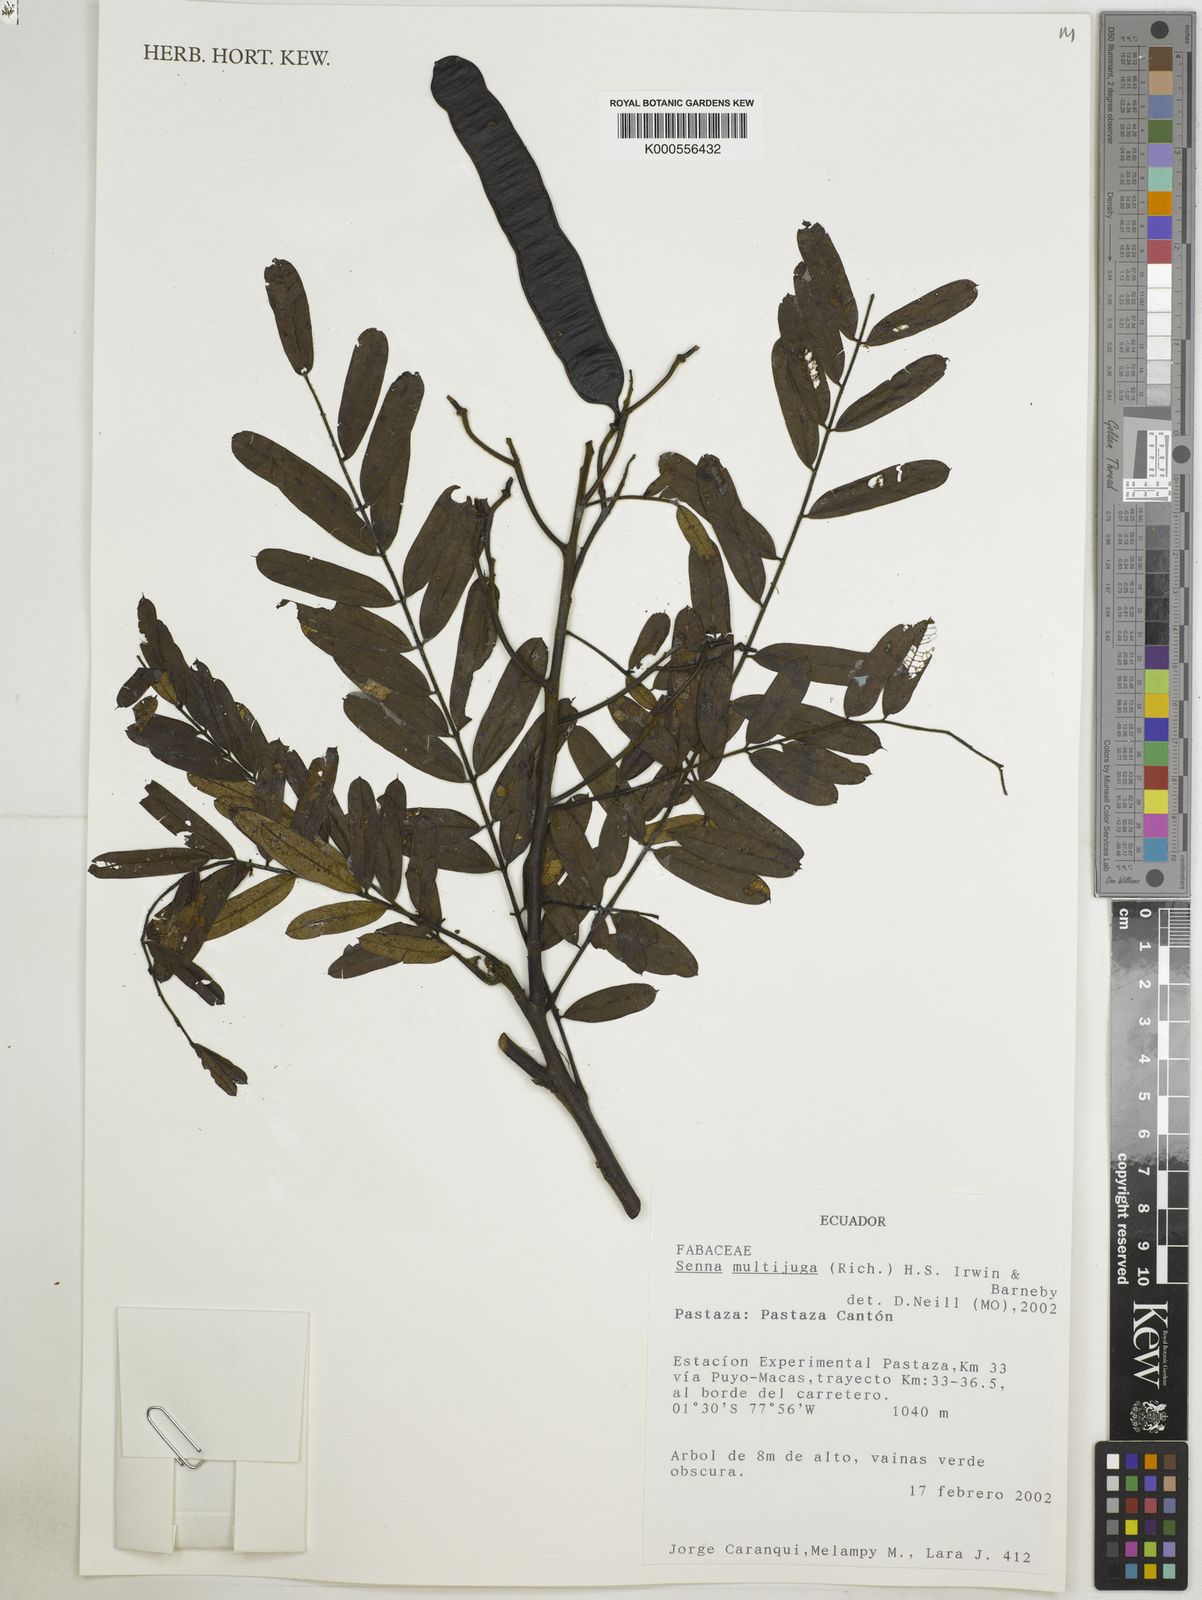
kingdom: Plantae
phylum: Tracheophyta
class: Magnoliopsida
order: Fabales
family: Fabaceae
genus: Senna
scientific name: Senna multijuga
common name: False sicklepod
